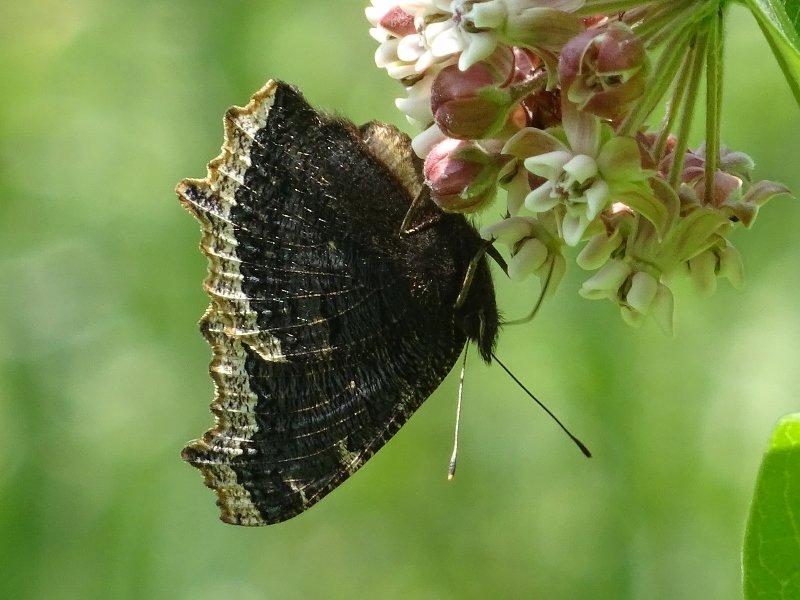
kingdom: Animalia
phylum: Arthropoda
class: Insecta
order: Lepidoptera
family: Nymphalidae
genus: Nymphalis
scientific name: Nymphalis antiopa
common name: Mourning Cloak
